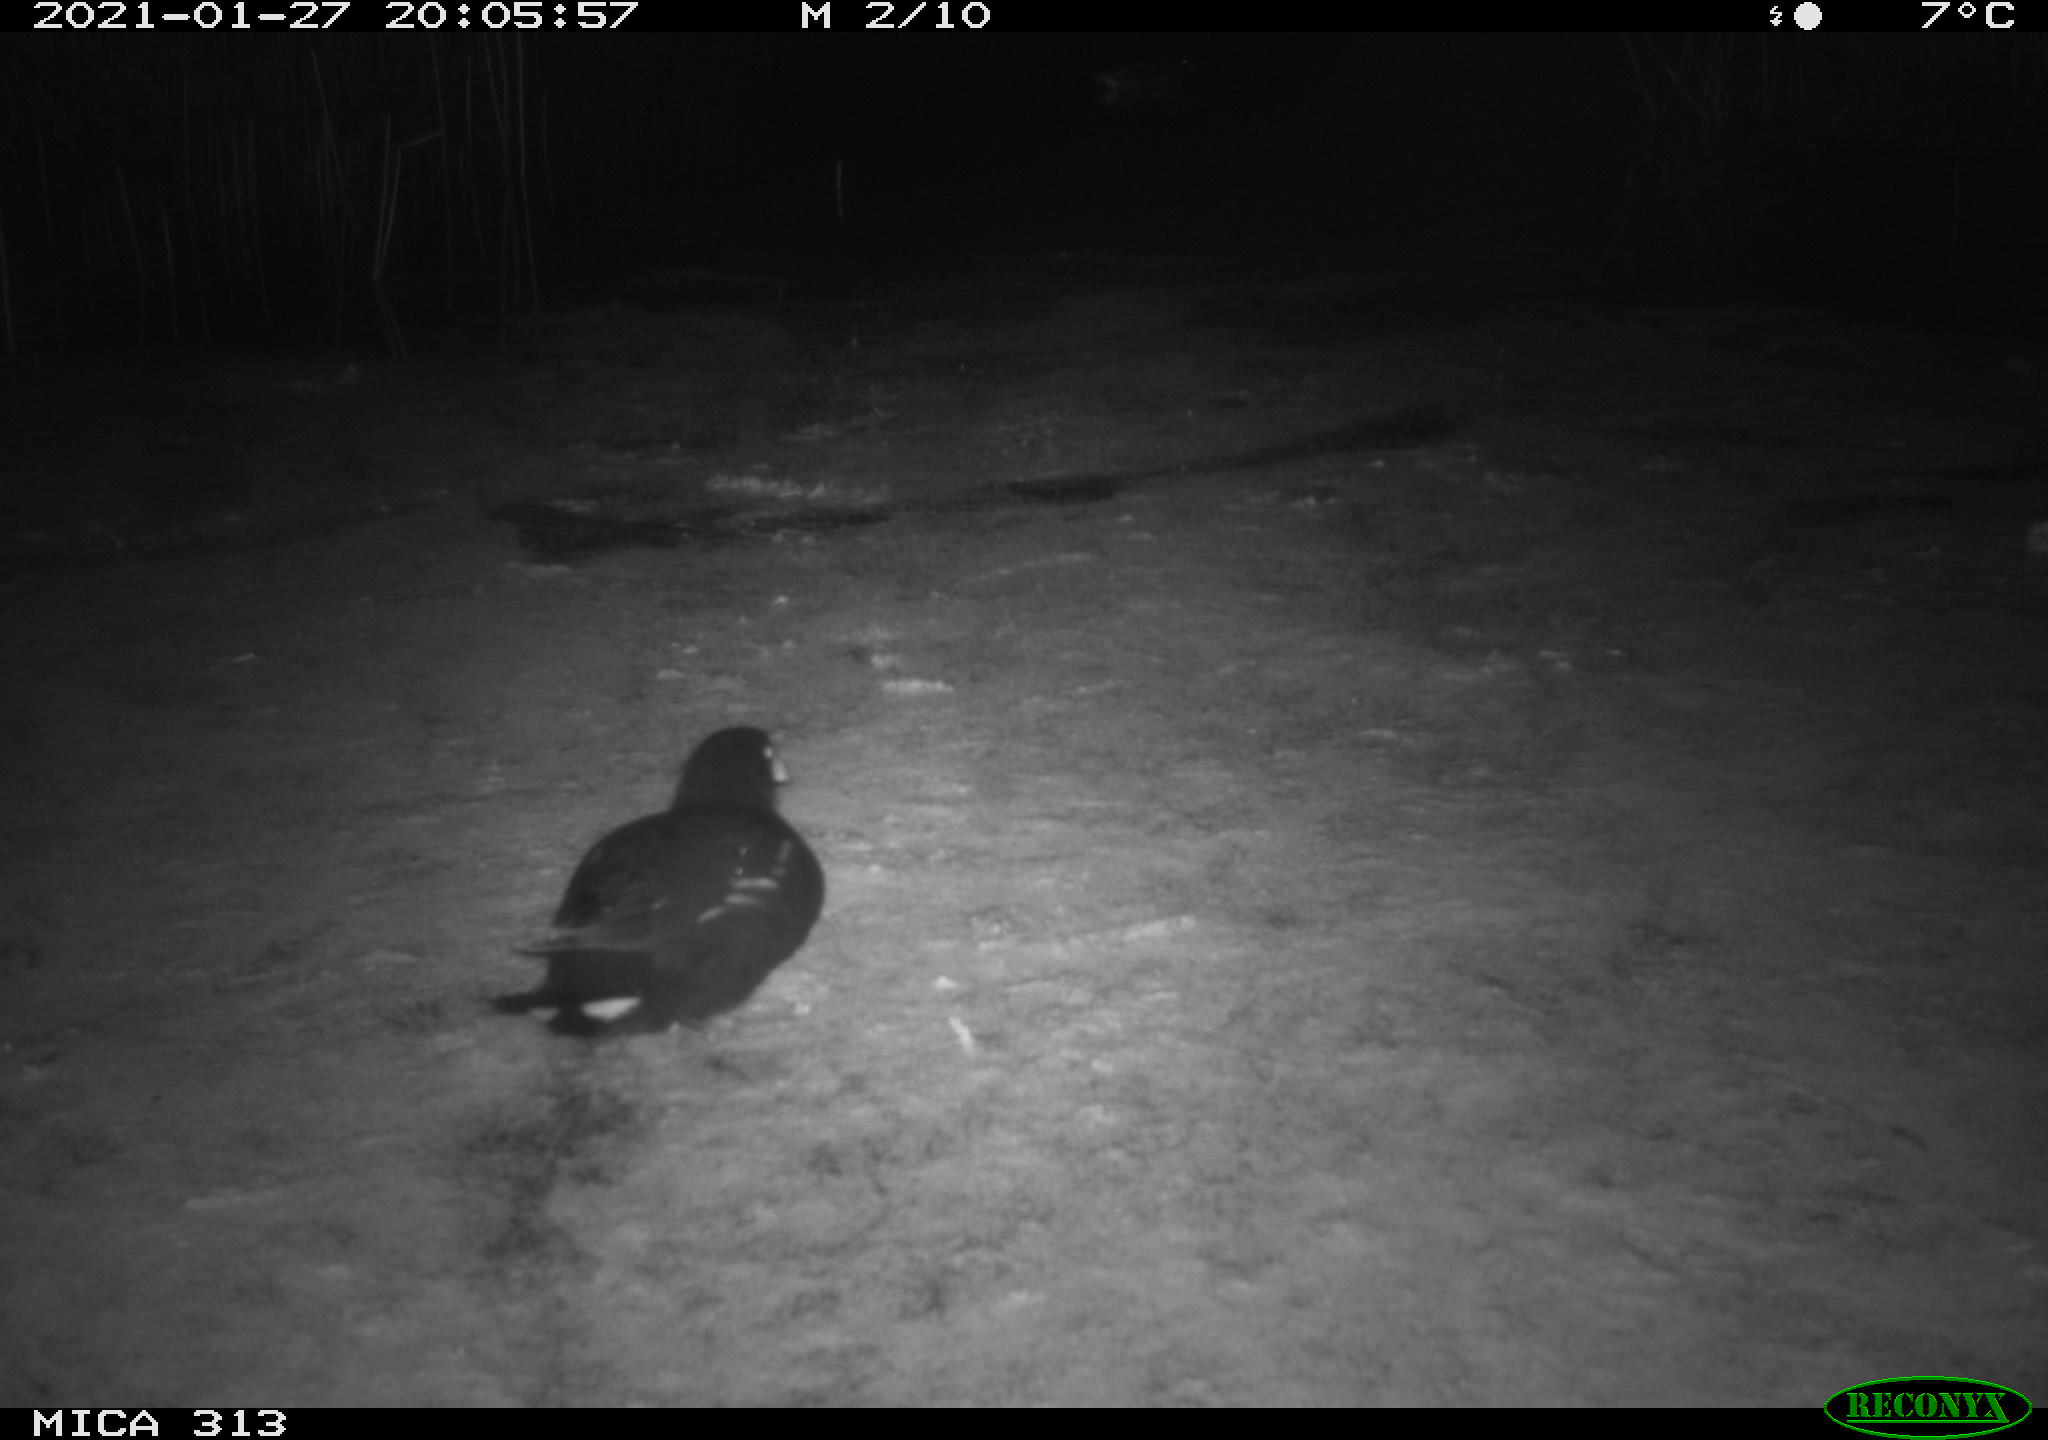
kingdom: Animalia
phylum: Chordata
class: Aves
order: Gruiformes
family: Rallidae
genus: Gallinula
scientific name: Gallinula chloropus
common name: Common moorhen
